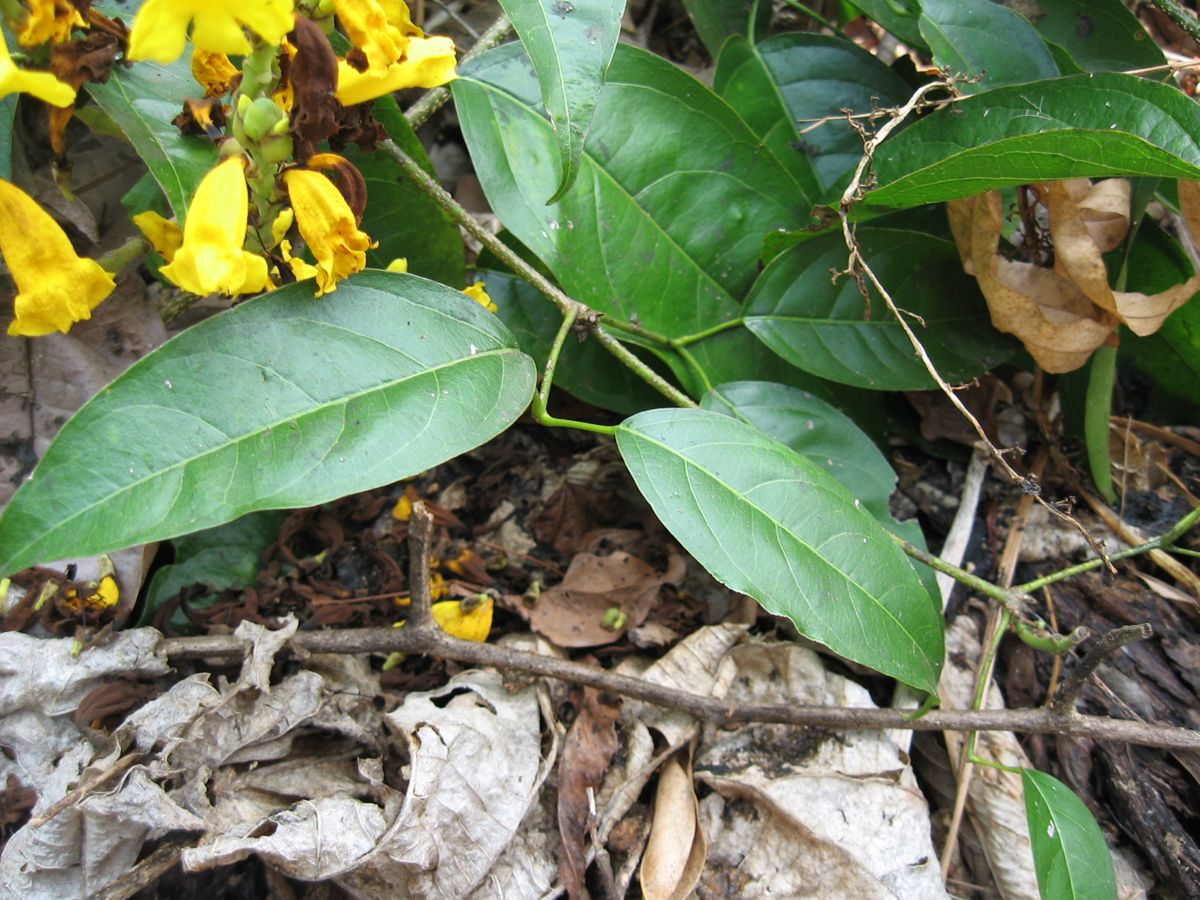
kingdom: Plantae
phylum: Tracheophyta
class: Magnoliopsida
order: Lamiales
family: Bignoniaceae
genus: Adenocalymma
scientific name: Adenocalymma inundatum
